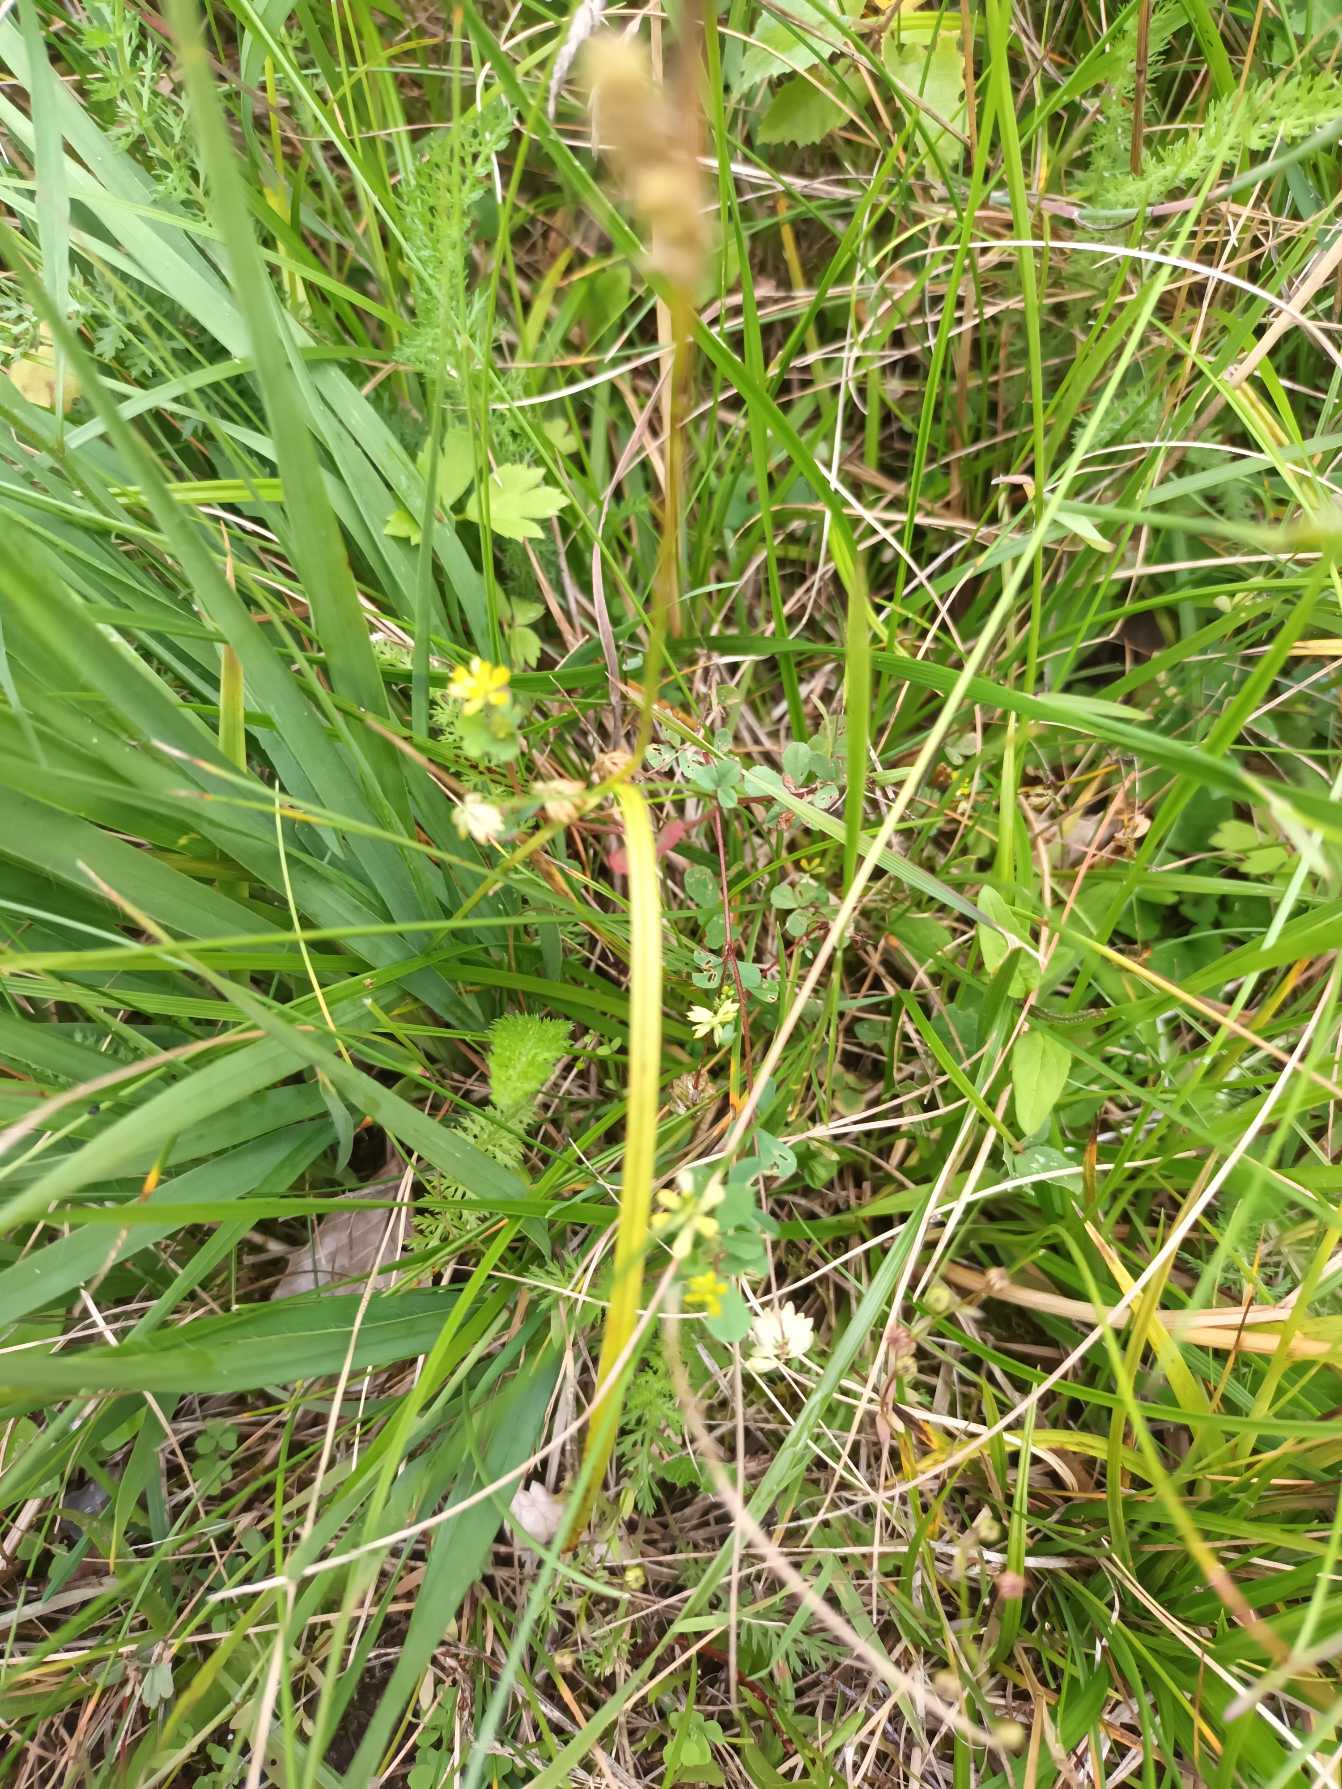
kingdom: Plantae
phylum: Tracheophyta
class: Magnoliopsida
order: Fabales
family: Fabaceae
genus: Trifolium
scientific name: Trifolium dubium
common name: Fin kløver
